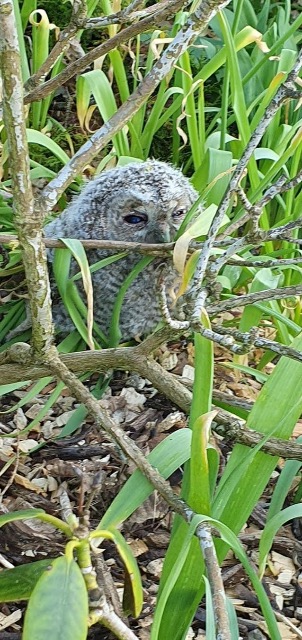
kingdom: Animalia
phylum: Chordata
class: Aves
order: Strigiformes
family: Strigidae
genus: Strix
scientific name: Strix aluco
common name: Natugle
